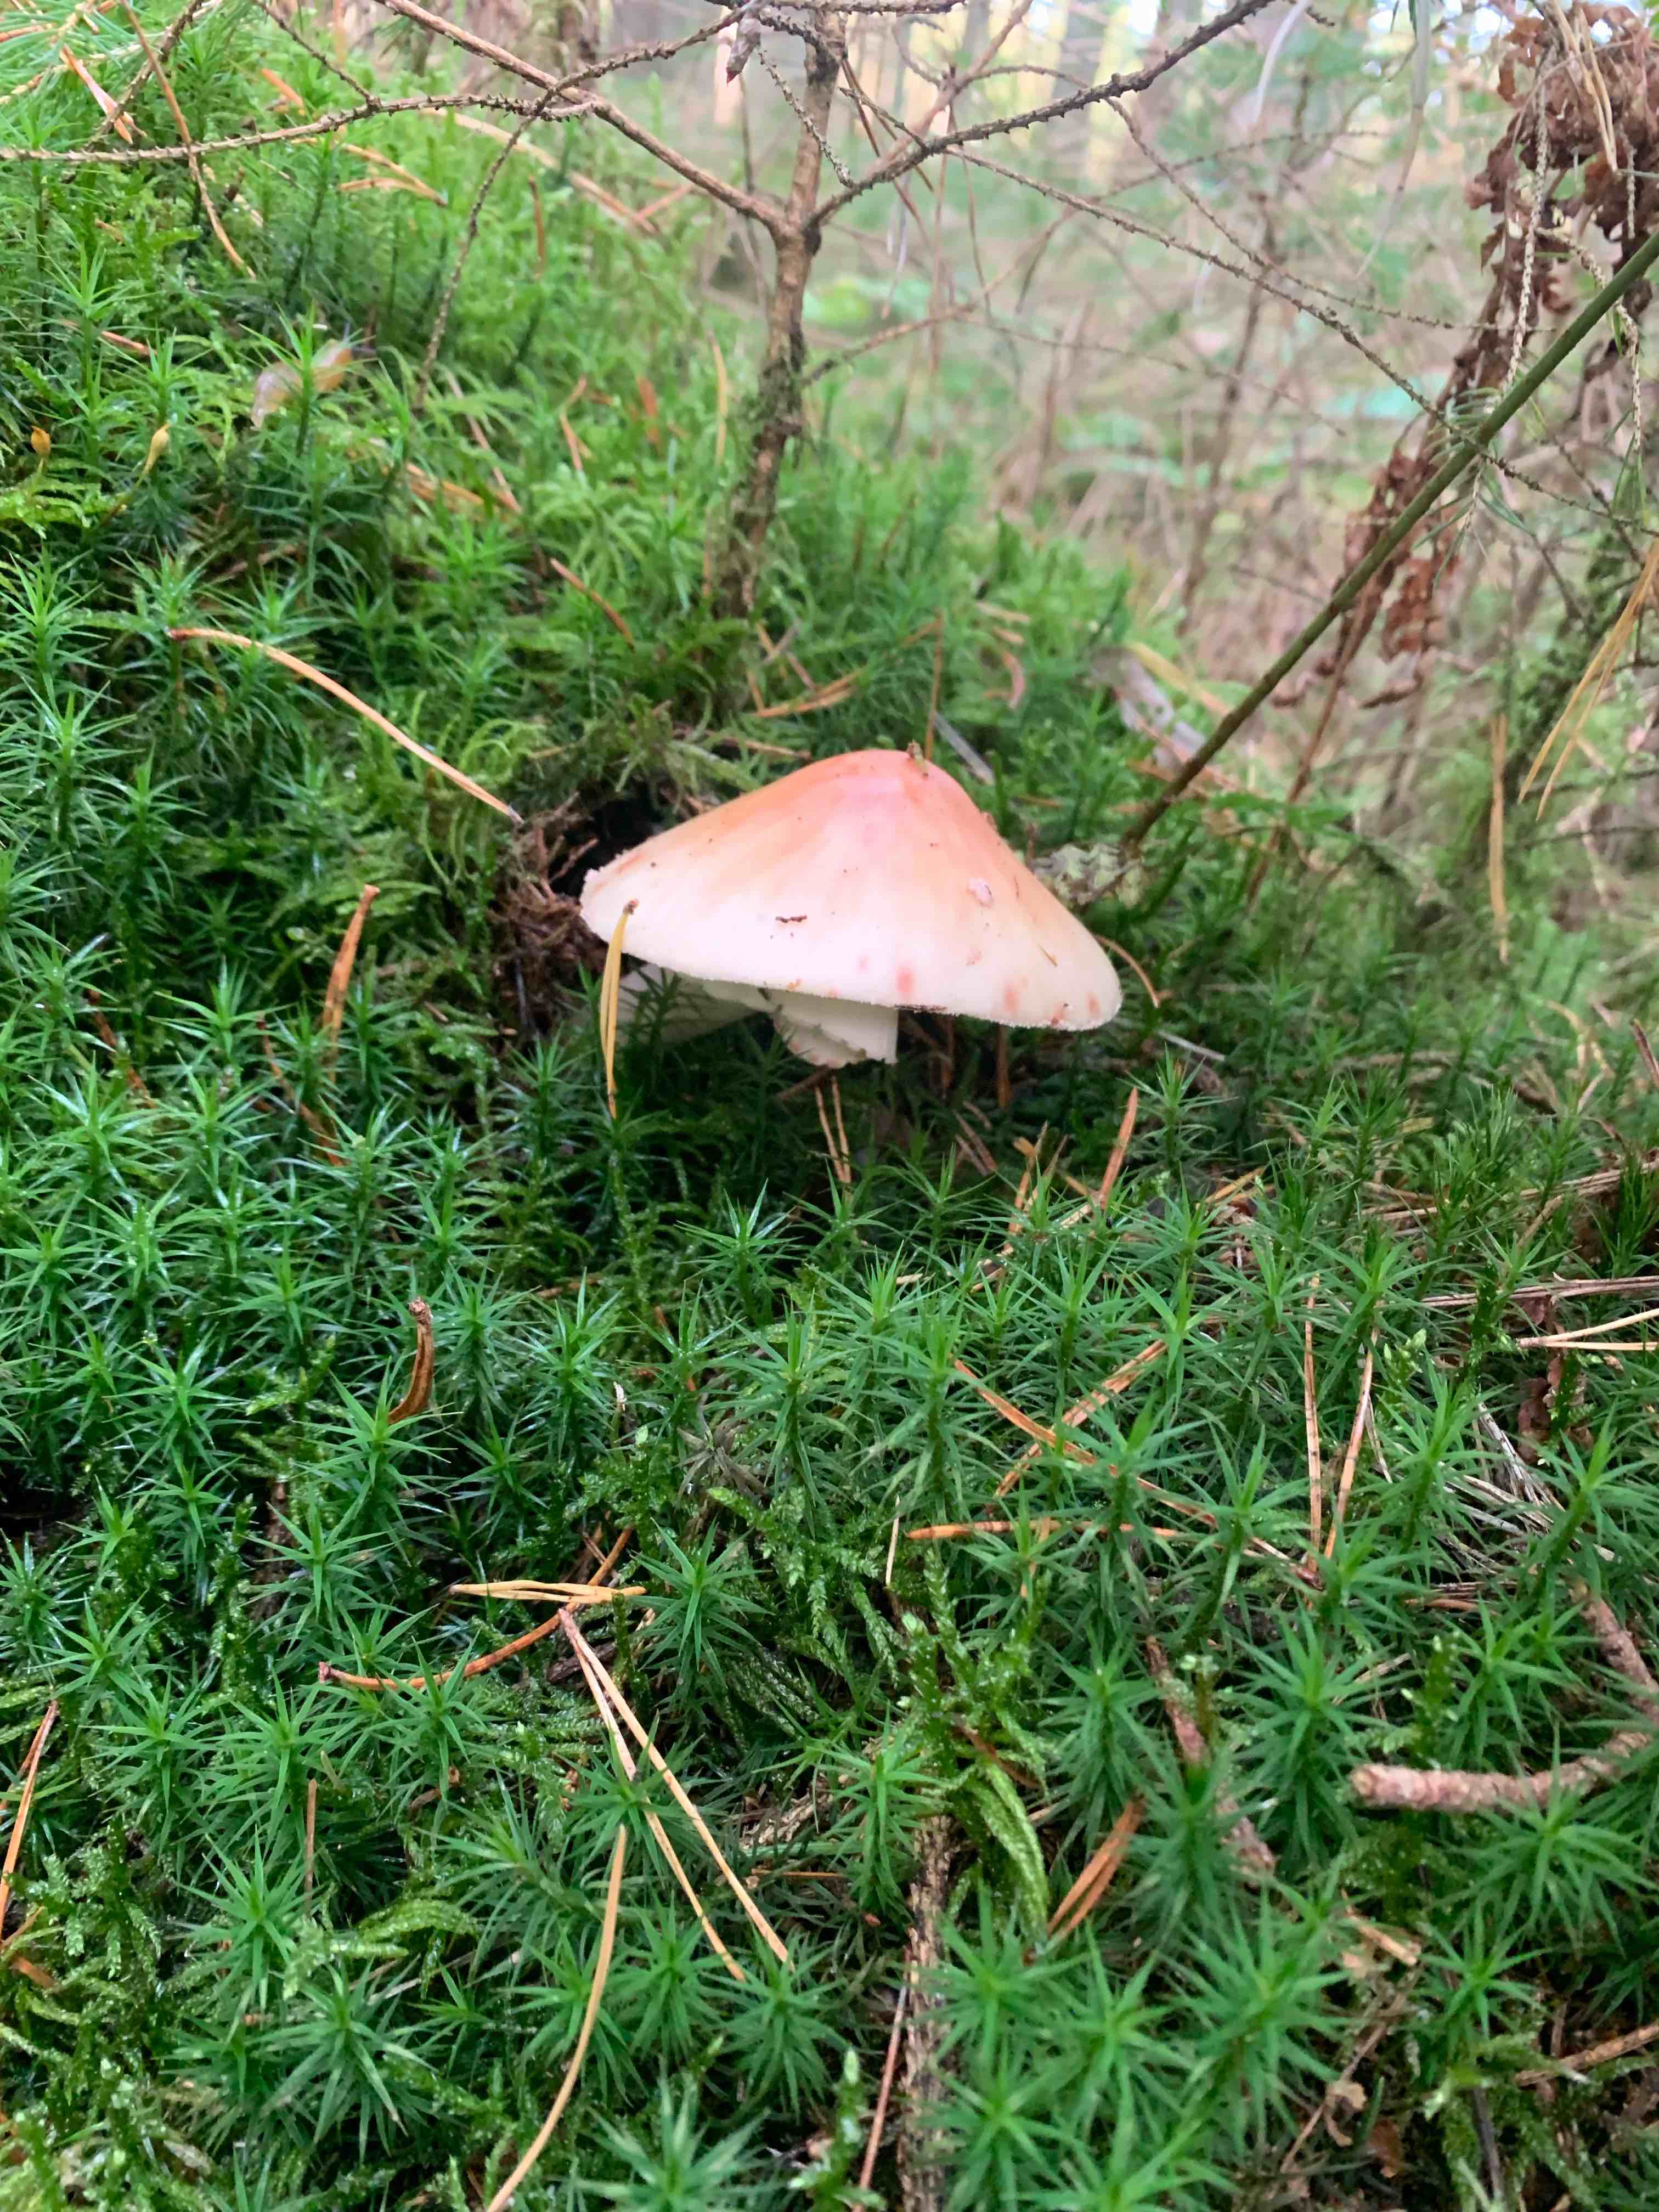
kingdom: Fungi
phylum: Basidiomycota
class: Agaricomycetes
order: Agaricales
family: Amanitaceae
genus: Amanita
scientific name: Amanita rubescens
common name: rødmende fluesvamp
